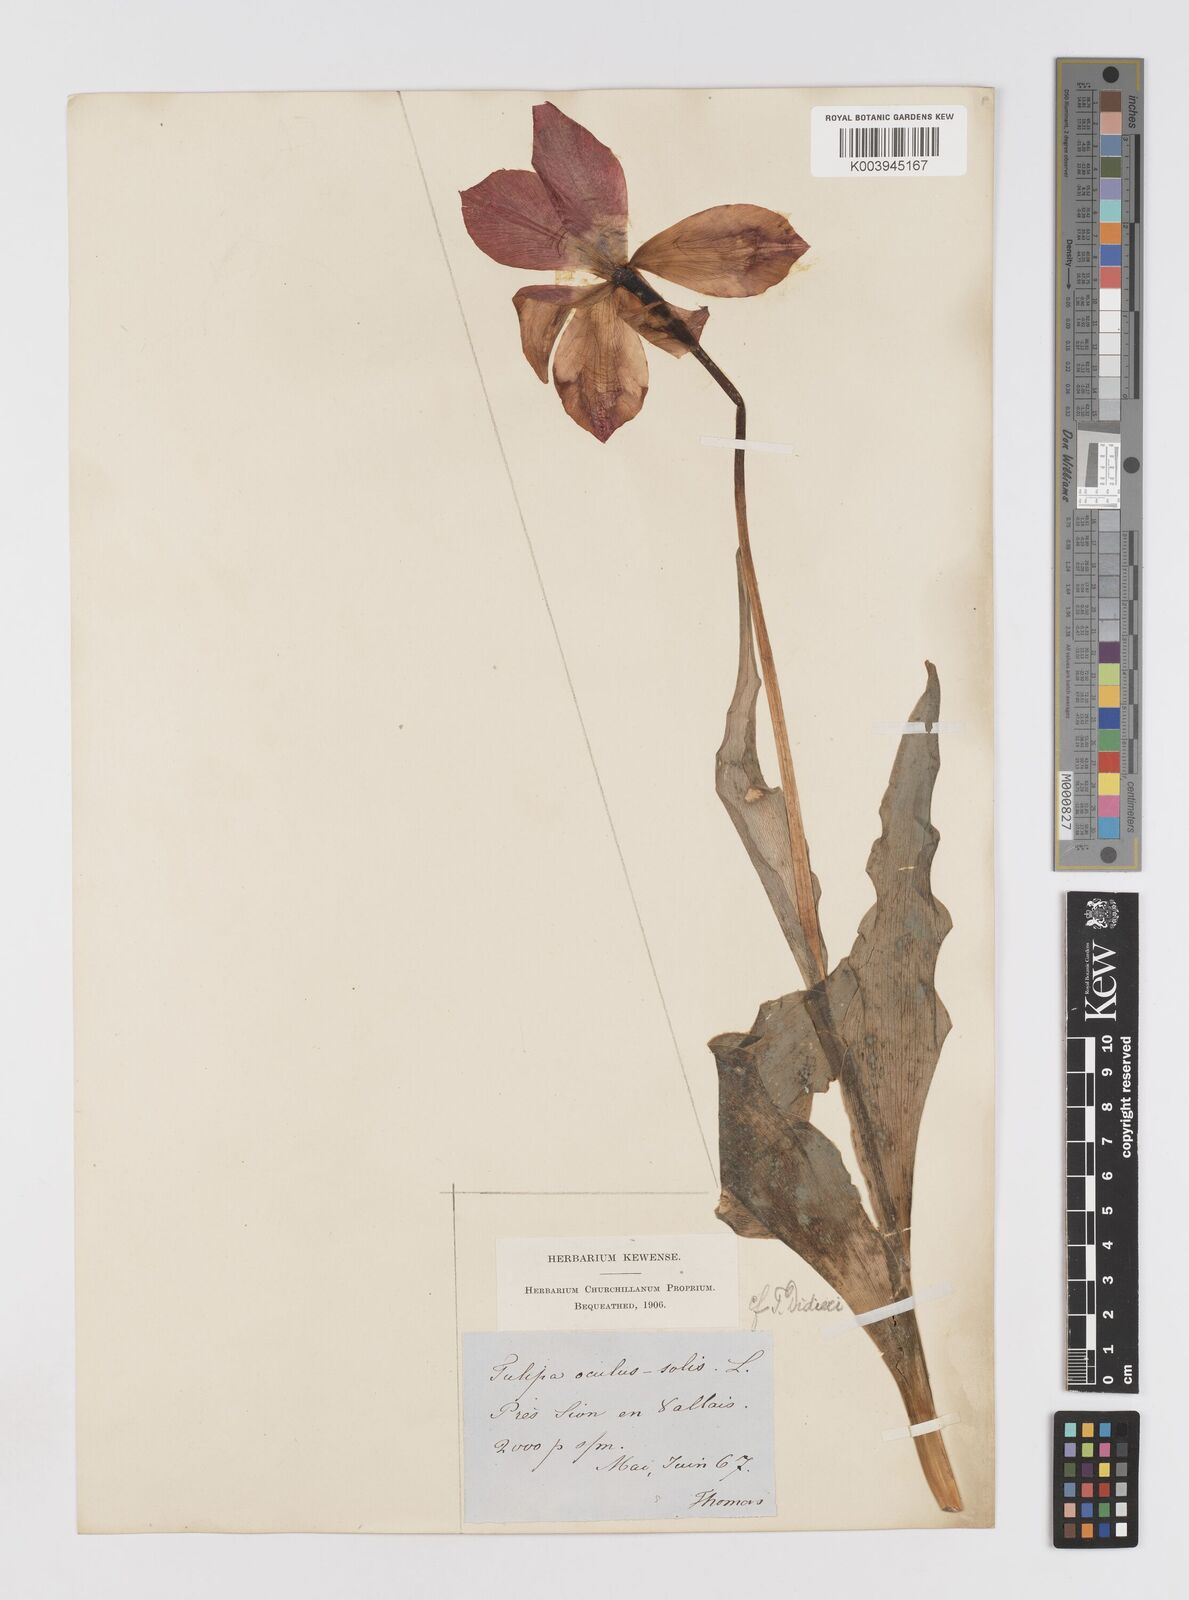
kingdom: Plantae
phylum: Tracheophyta
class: Liliopsida
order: Liliales
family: Liliaceae
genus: Tulipa
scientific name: Tulipa gesneriana
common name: Garden tulip
